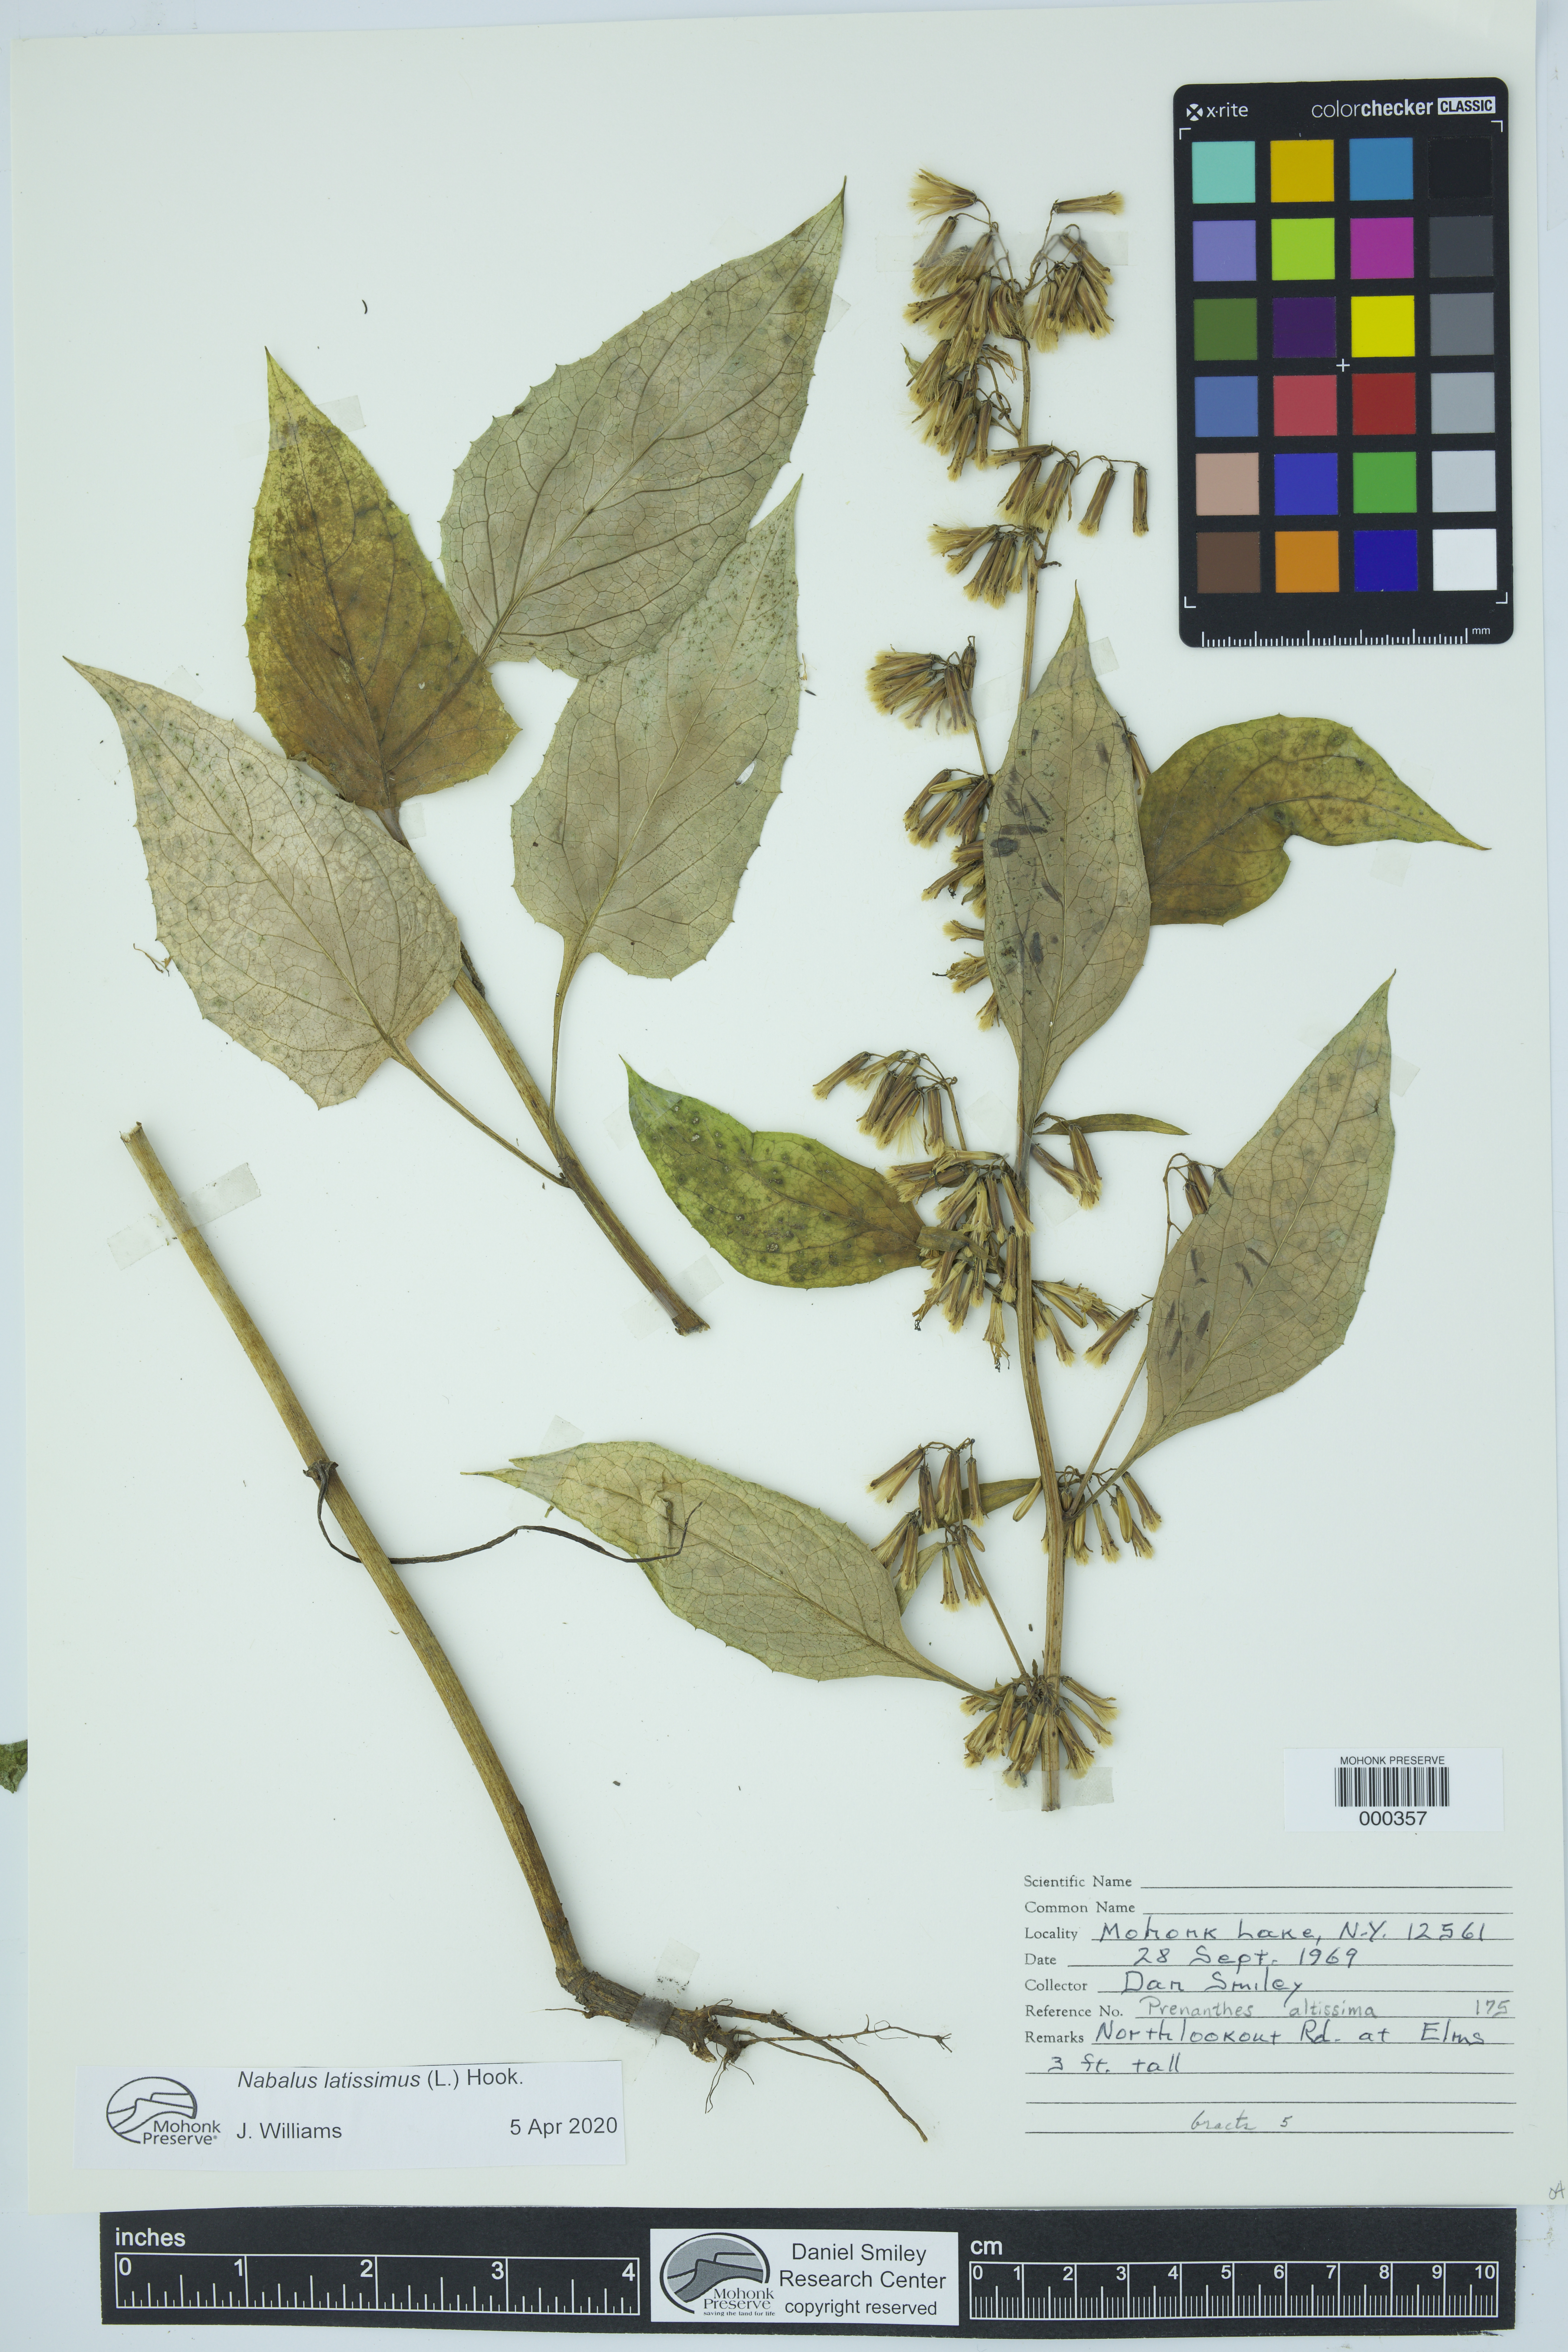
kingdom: Plantae
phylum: Tracheophyta
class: Magnoliopsida
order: Asterales
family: Asteraceae
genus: Nabalus
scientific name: Nabalus
